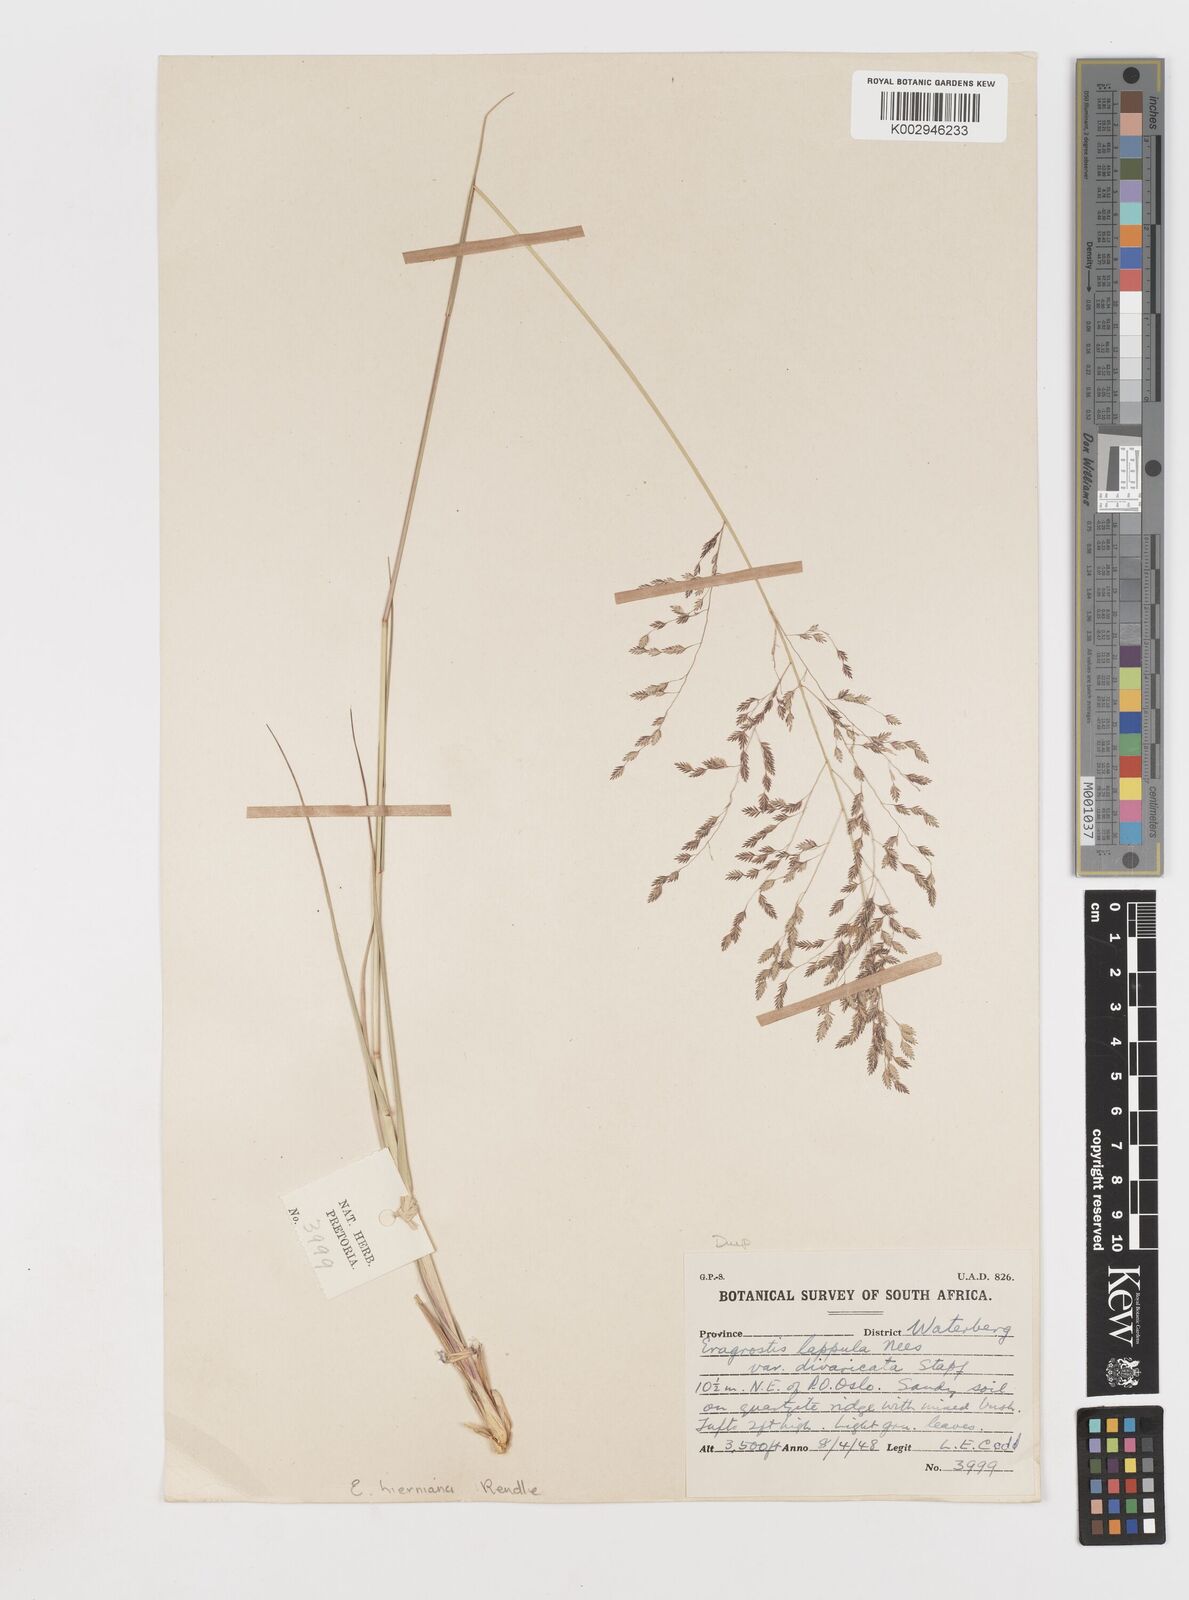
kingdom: Plantae
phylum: Tracheophyta
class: Liliopsida
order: Poales
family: Poaceae
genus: Eragrostis
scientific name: Eragrostis lappula
